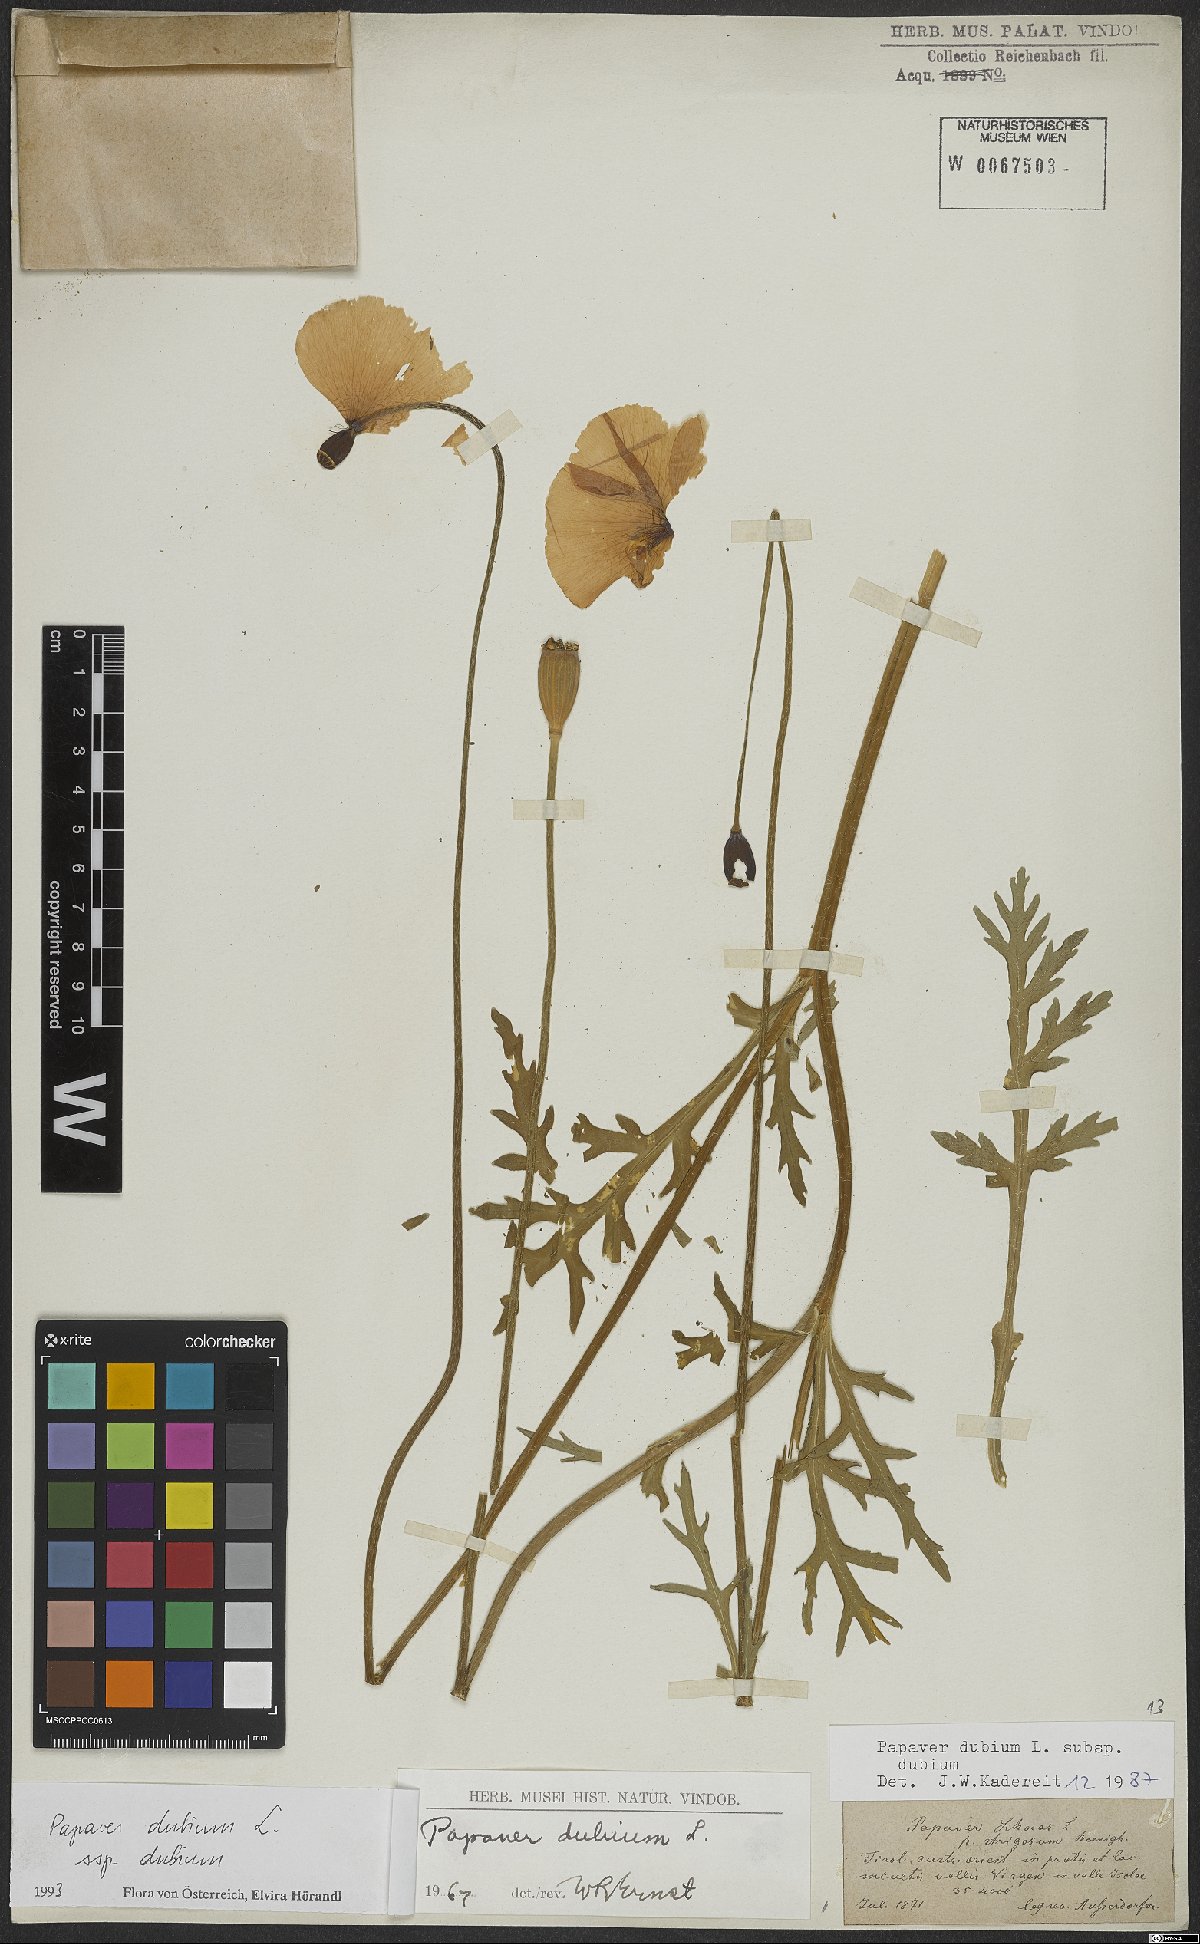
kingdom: Plantae
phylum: Tracheophyta
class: Magnoliopsida
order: Ranunculales
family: Papaveraceae
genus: Papaver
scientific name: Papaver dubium
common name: Long-headed poppy
